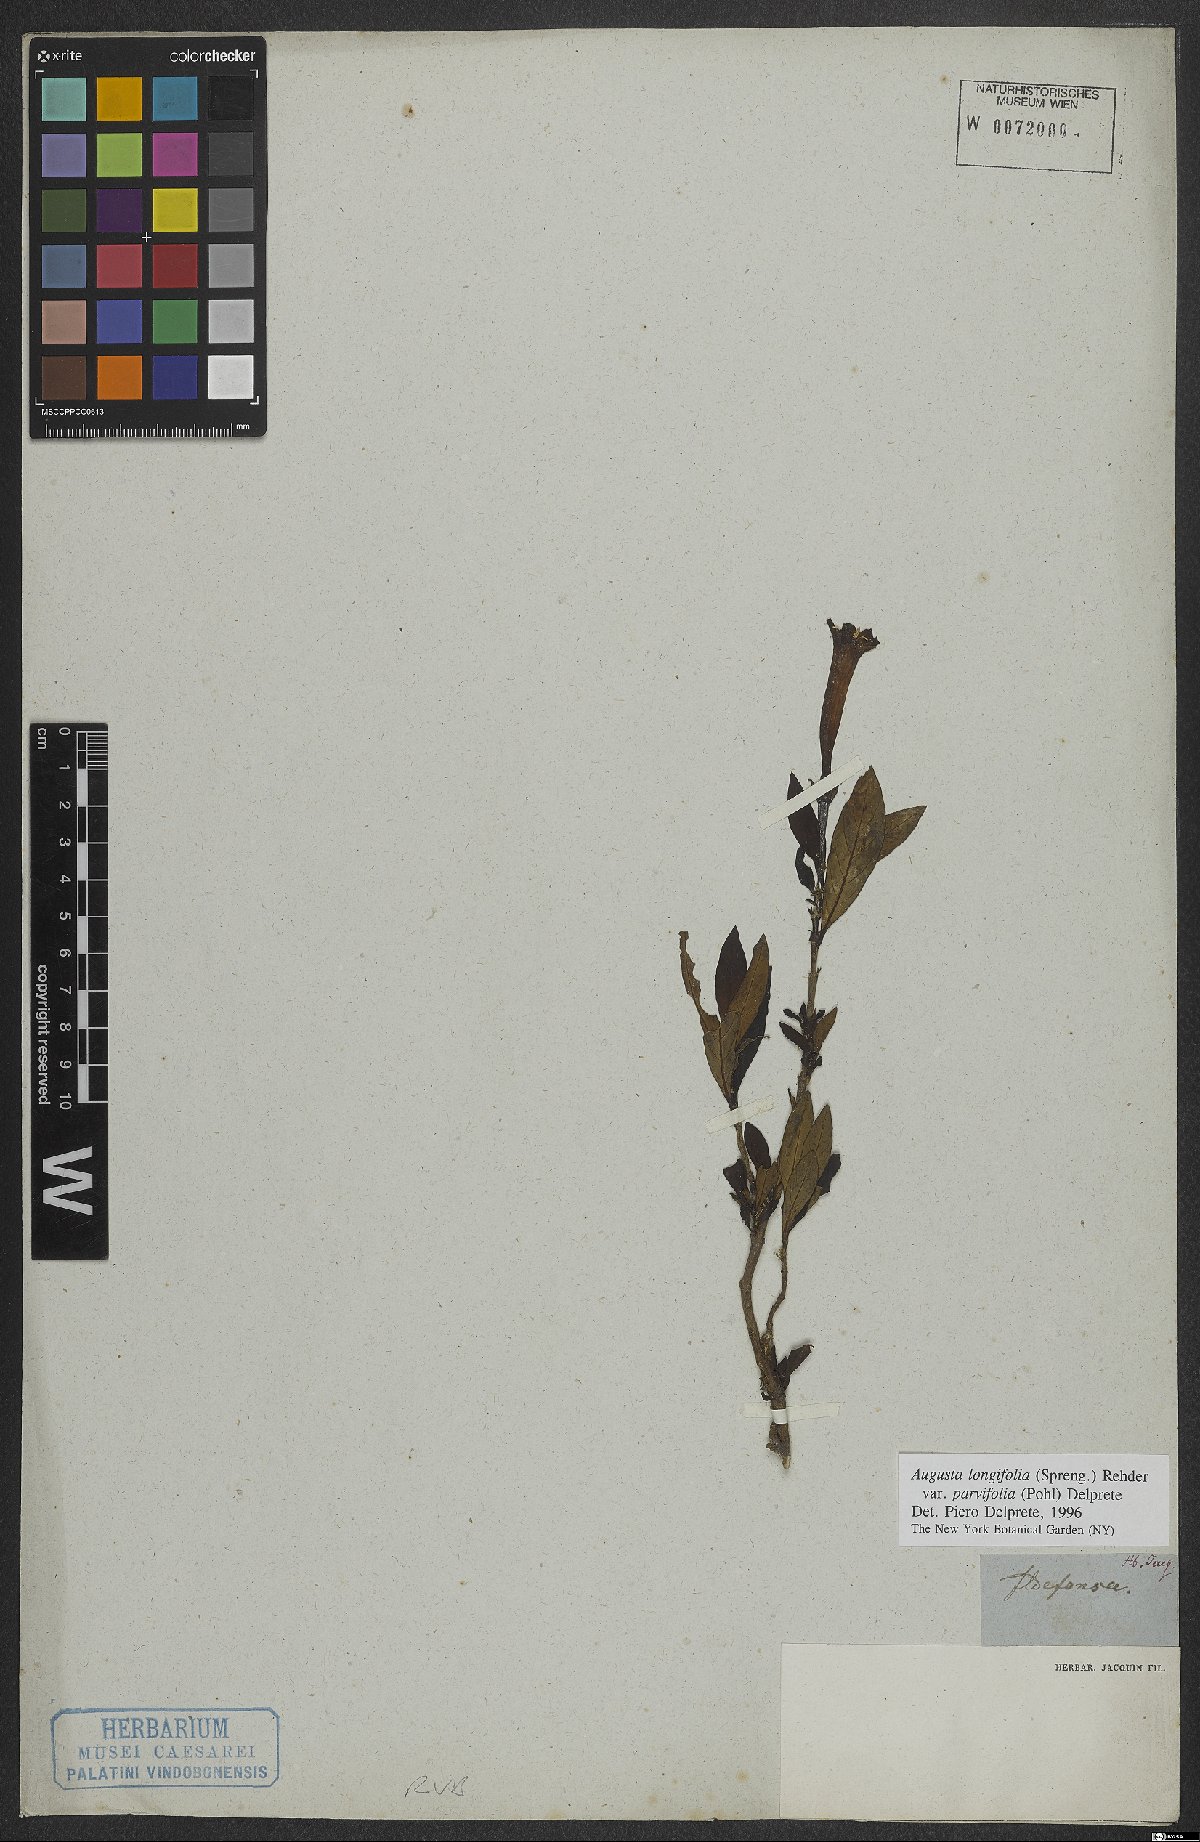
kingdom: Plantae
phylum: Tracheophyta
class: Magnoliopsida
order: Gentianales
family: Rubiaceae
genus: Augusta
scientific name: Augusta longifolia
